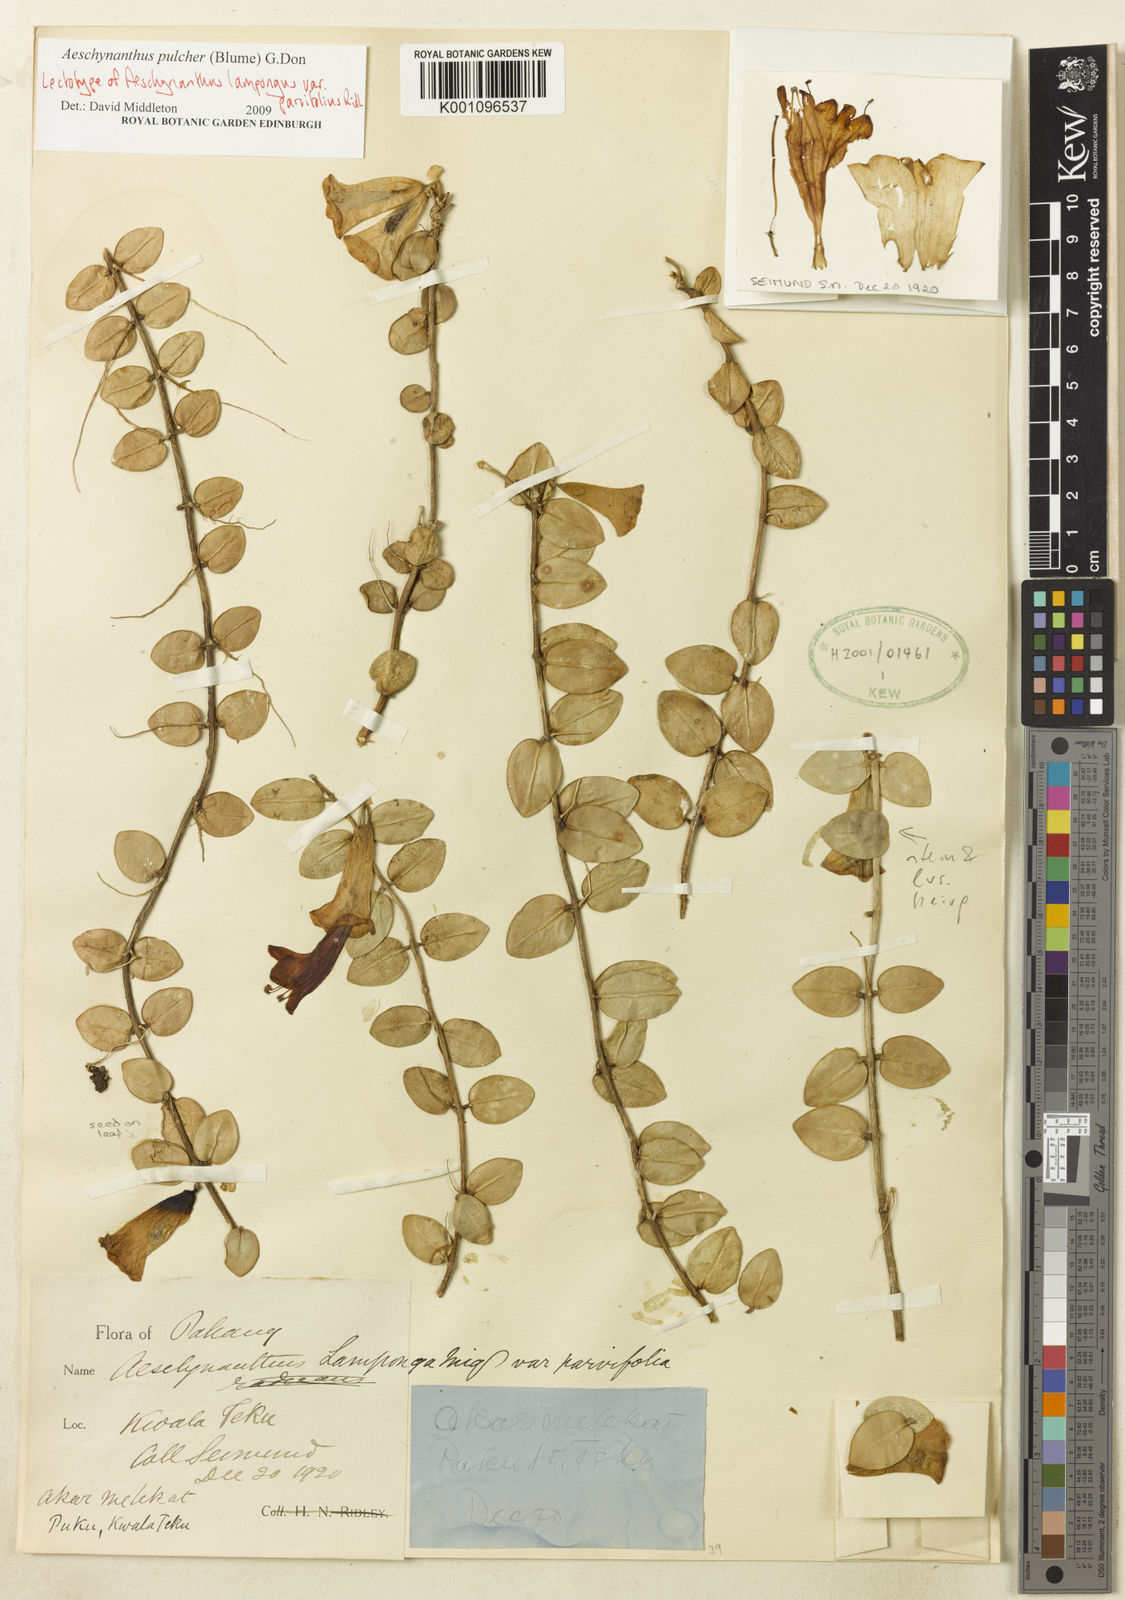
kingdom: Plantae
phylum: Tracheophyta
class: Magnoliopsida
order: Lamiales
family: Gesneriaceae
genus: Aeschynanthus
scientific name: Aeschynanthus pulcher
